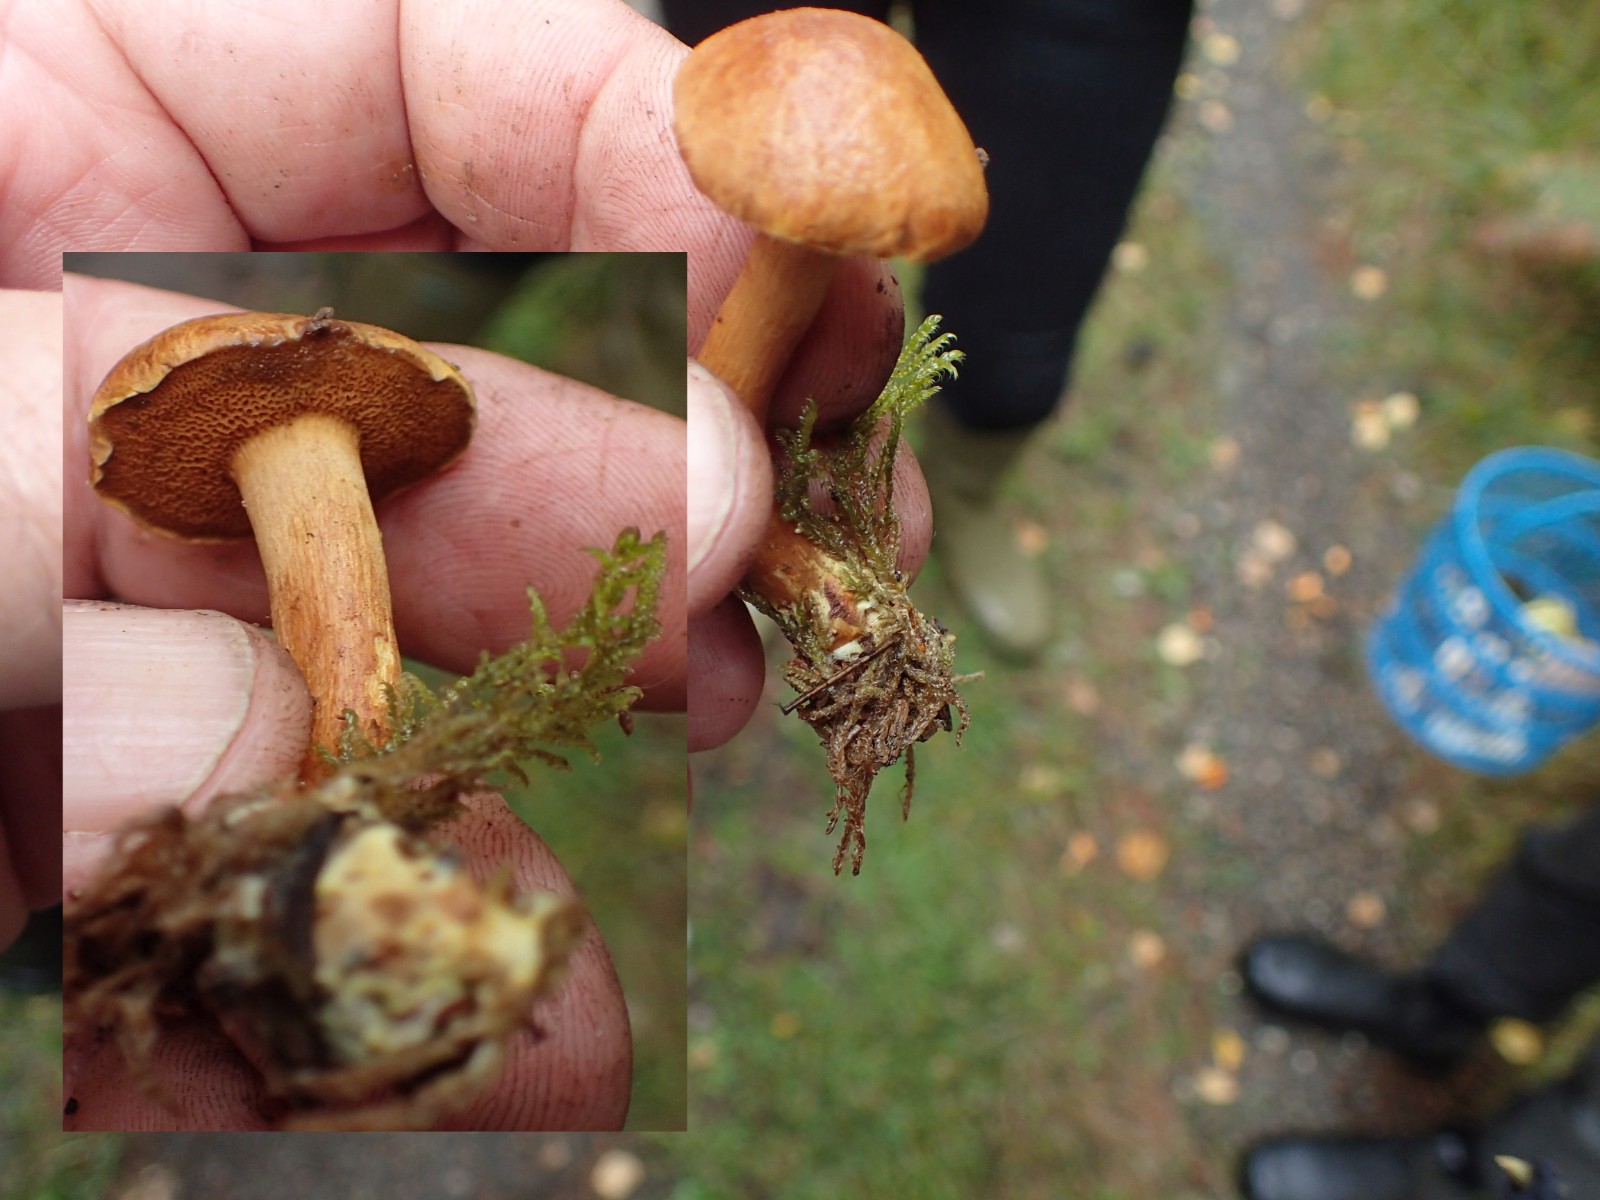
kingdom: Fungi
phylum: Basidiomycota
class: Agaricomycetes
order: Boletales
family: Boletaceae
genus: Chalciporus
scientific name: Chalciporus piperatus
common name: peberrørhat
